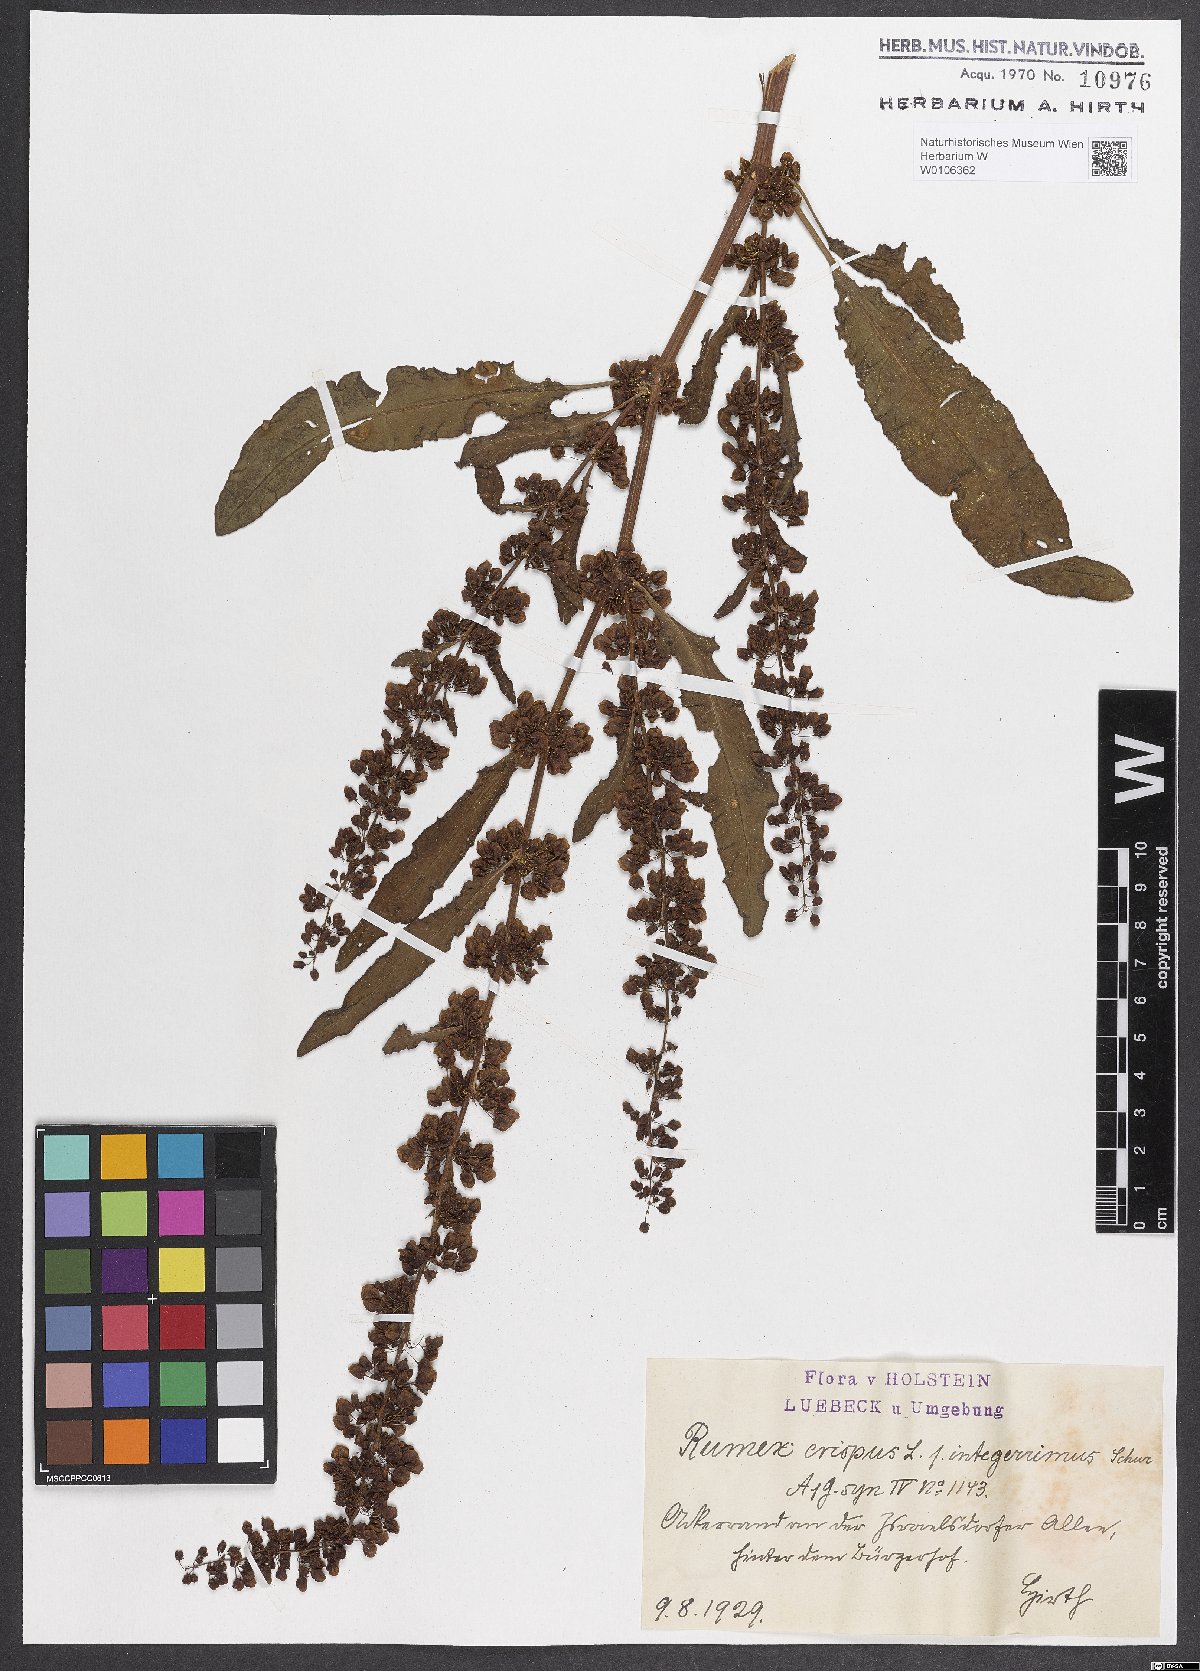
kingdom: Plantae
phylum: Tracheophyta
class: Magnoliopsida
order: Caryophyllales
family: Polygonaceae
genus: Rumex
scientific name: Rumex crispus
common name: Curled dock
